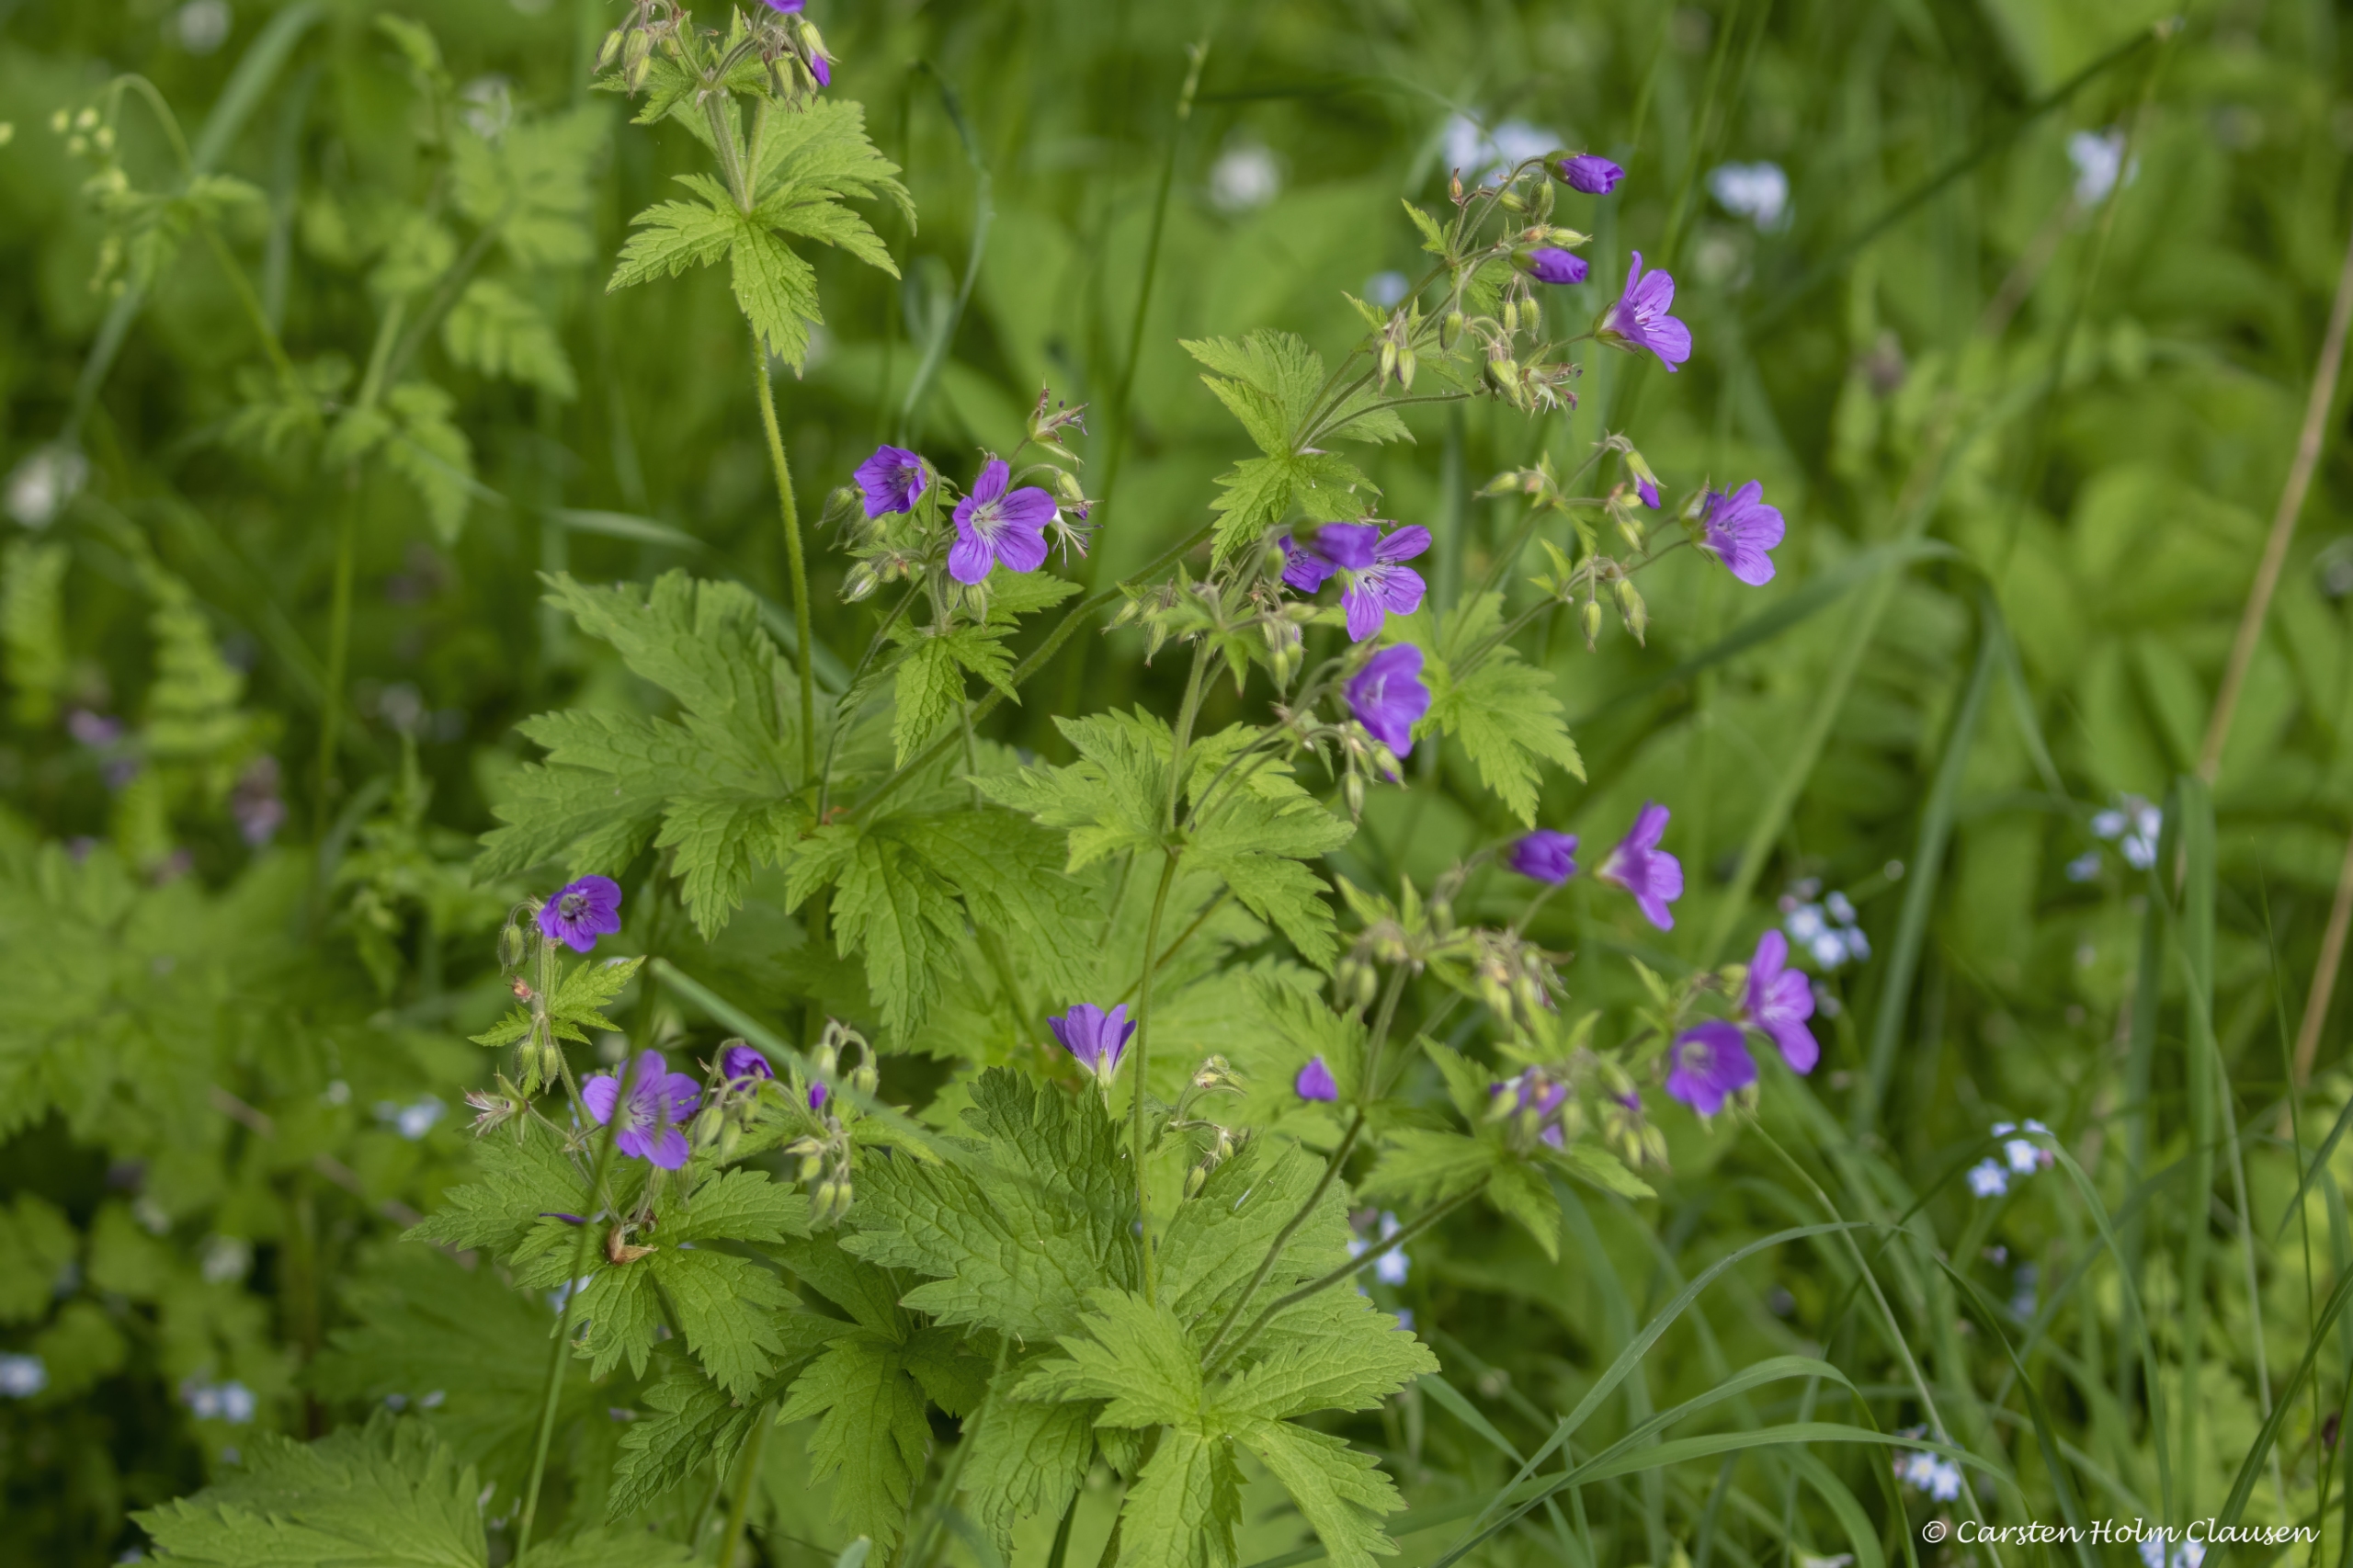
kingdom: Plantae
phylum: Tracheophyta
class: Magnoliopsida
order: Geraniales
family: Geraniaceae
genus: Geranium
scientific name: Geranium sylvaticum
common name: Skov-storkenæb
